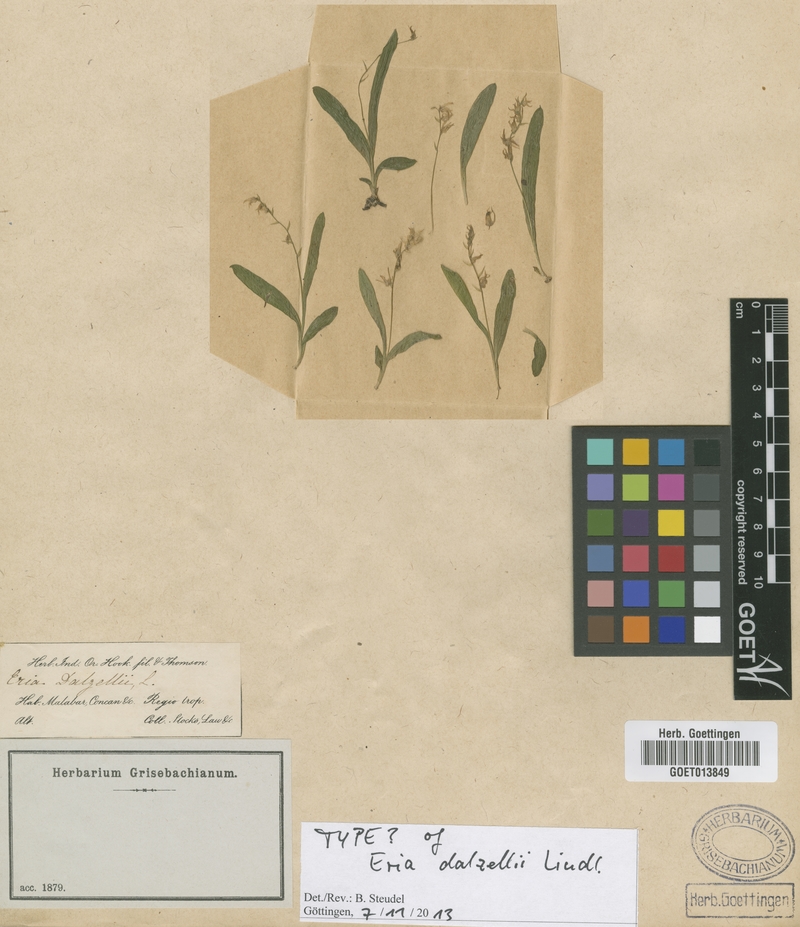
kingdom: Plantae
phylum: Tracheophyta
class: Liliopsida
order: Asparagales
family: Orchidaceae
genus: Porpax
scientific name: Porpax filiformis
